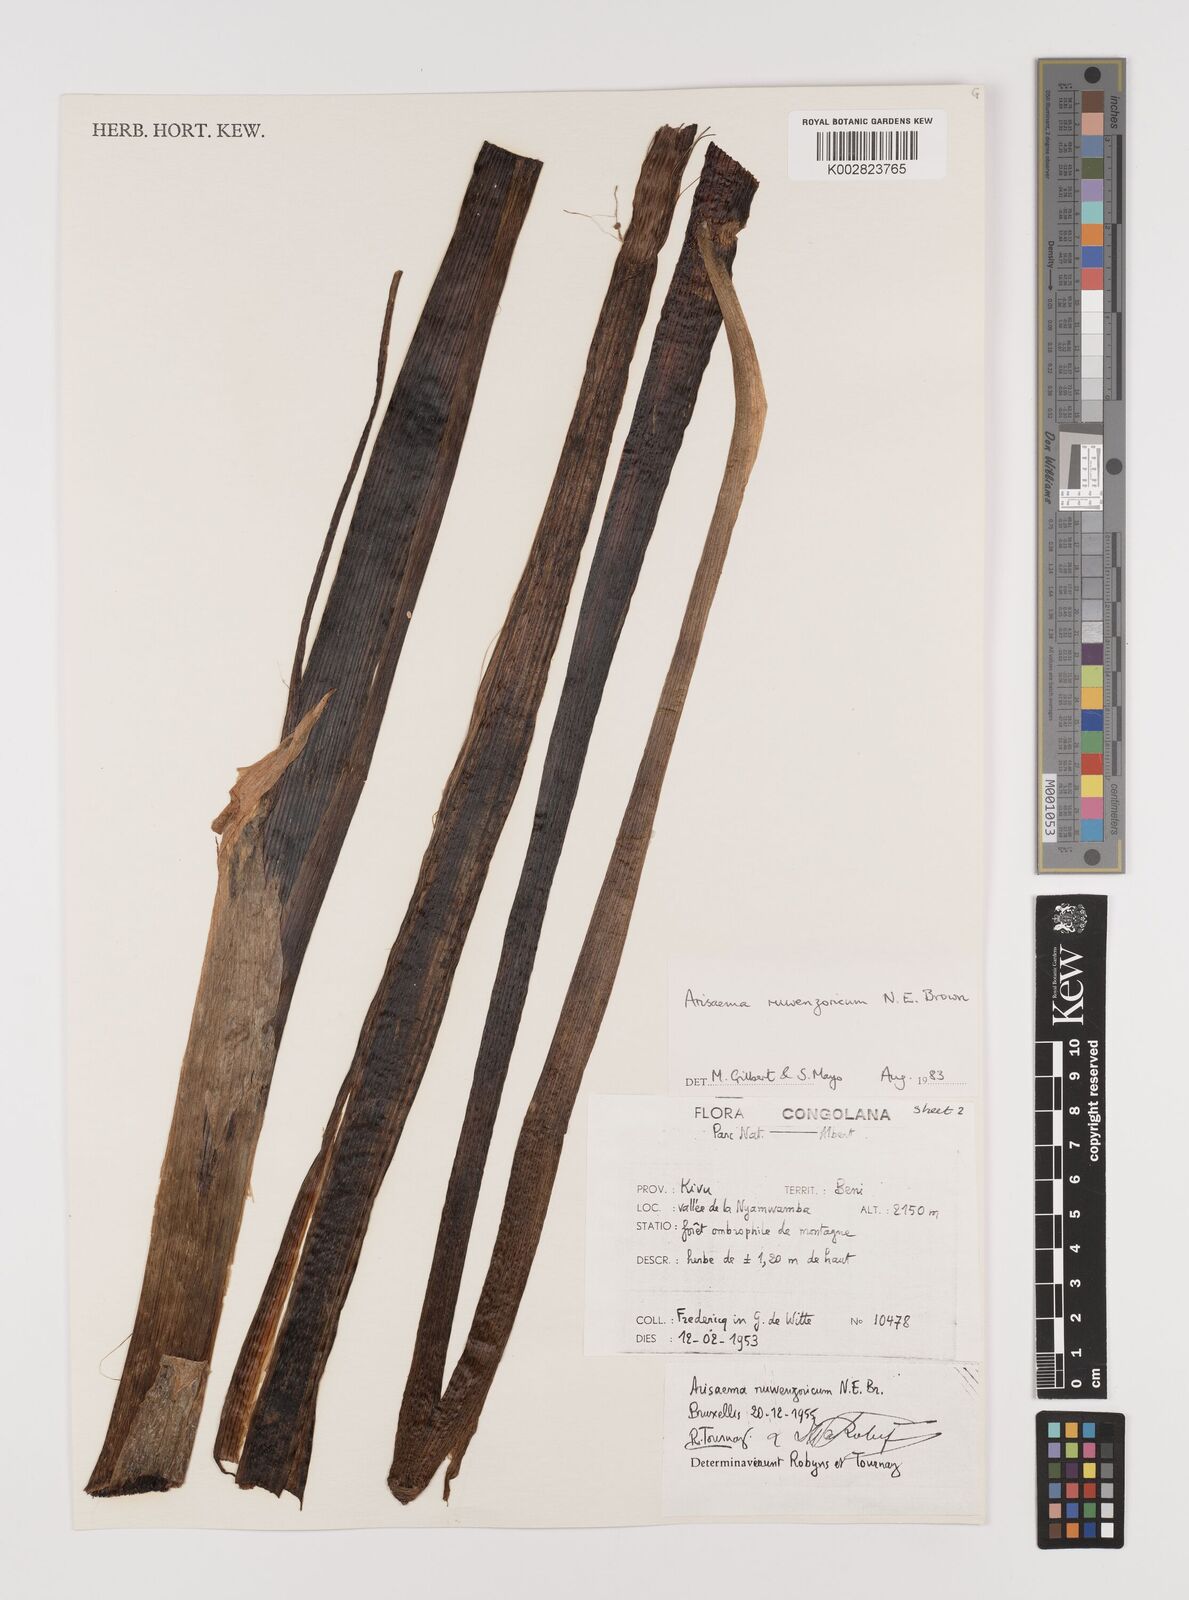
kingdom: Plantae
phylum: Tracheophyta
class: Liliopsida
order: Alismatales
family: Araceae
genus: Arisaema
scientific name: Arisaema ruwenzoricum
